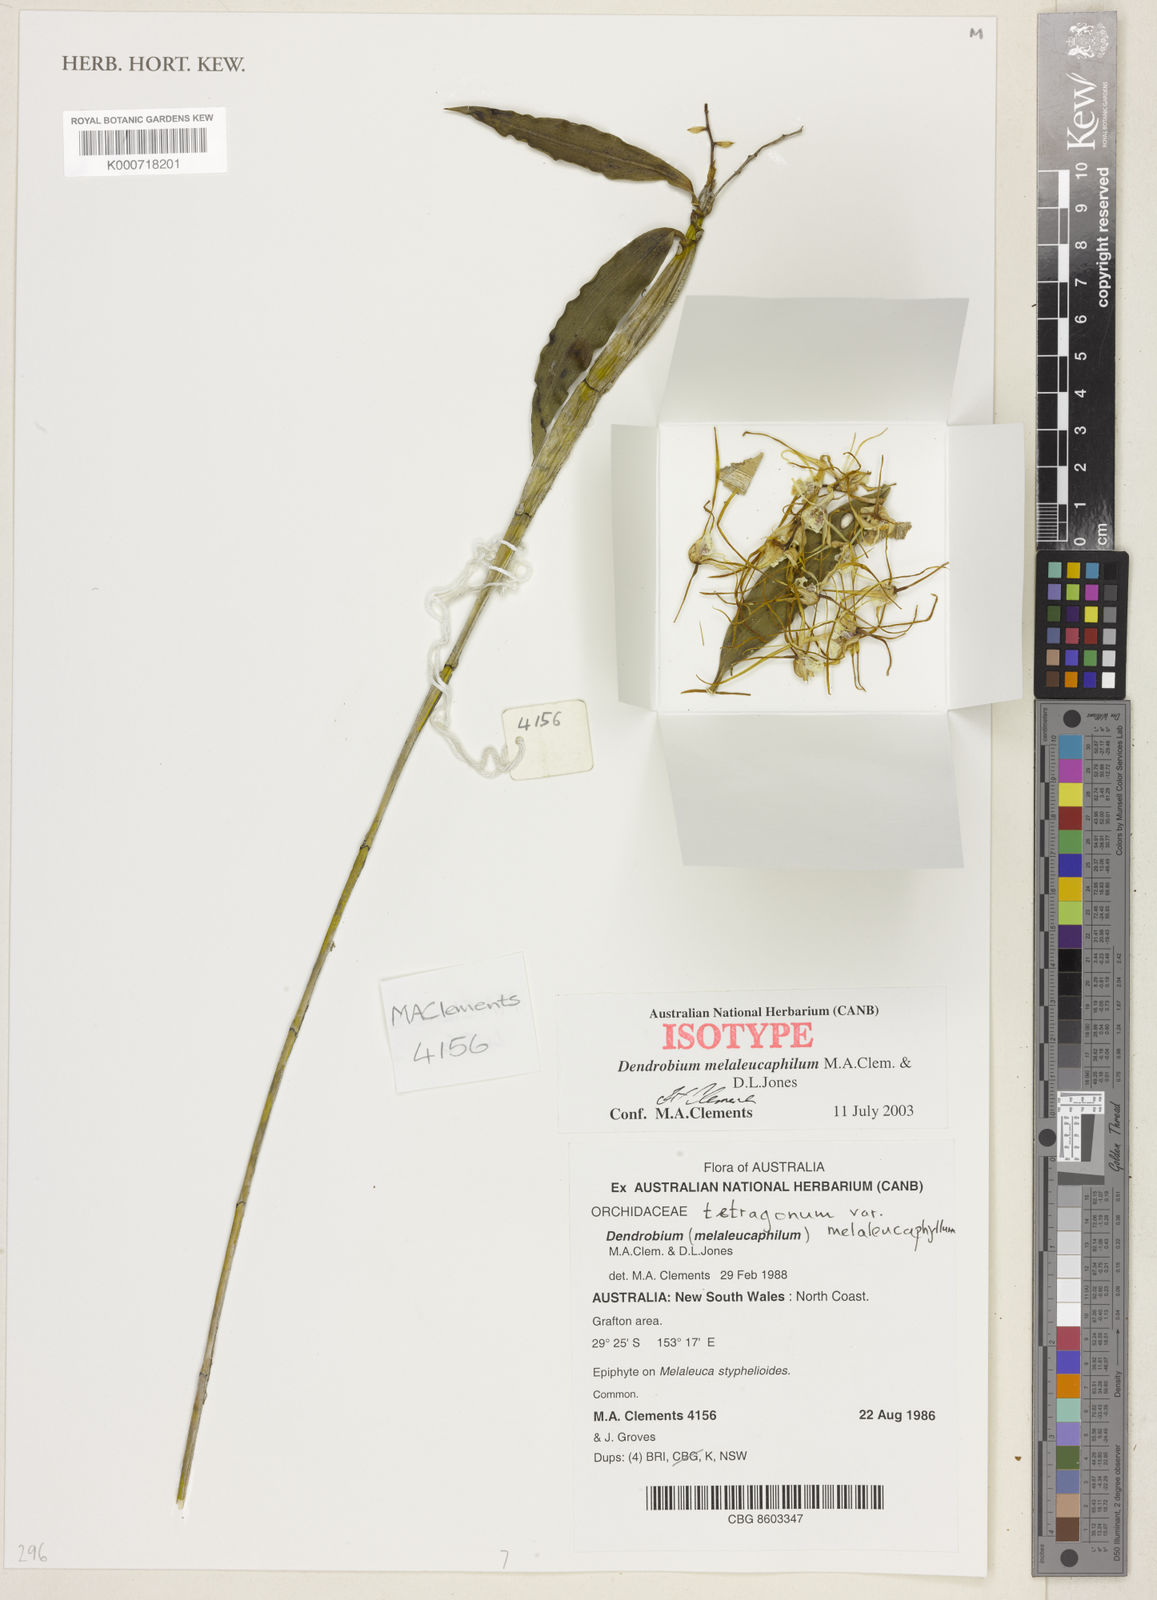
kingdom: Plantae
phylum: Tracheophyta
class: Liliopsida
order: Asparagales
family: Orchidaceae
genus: Dendrobium
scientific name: Dendrobium tetragonum
